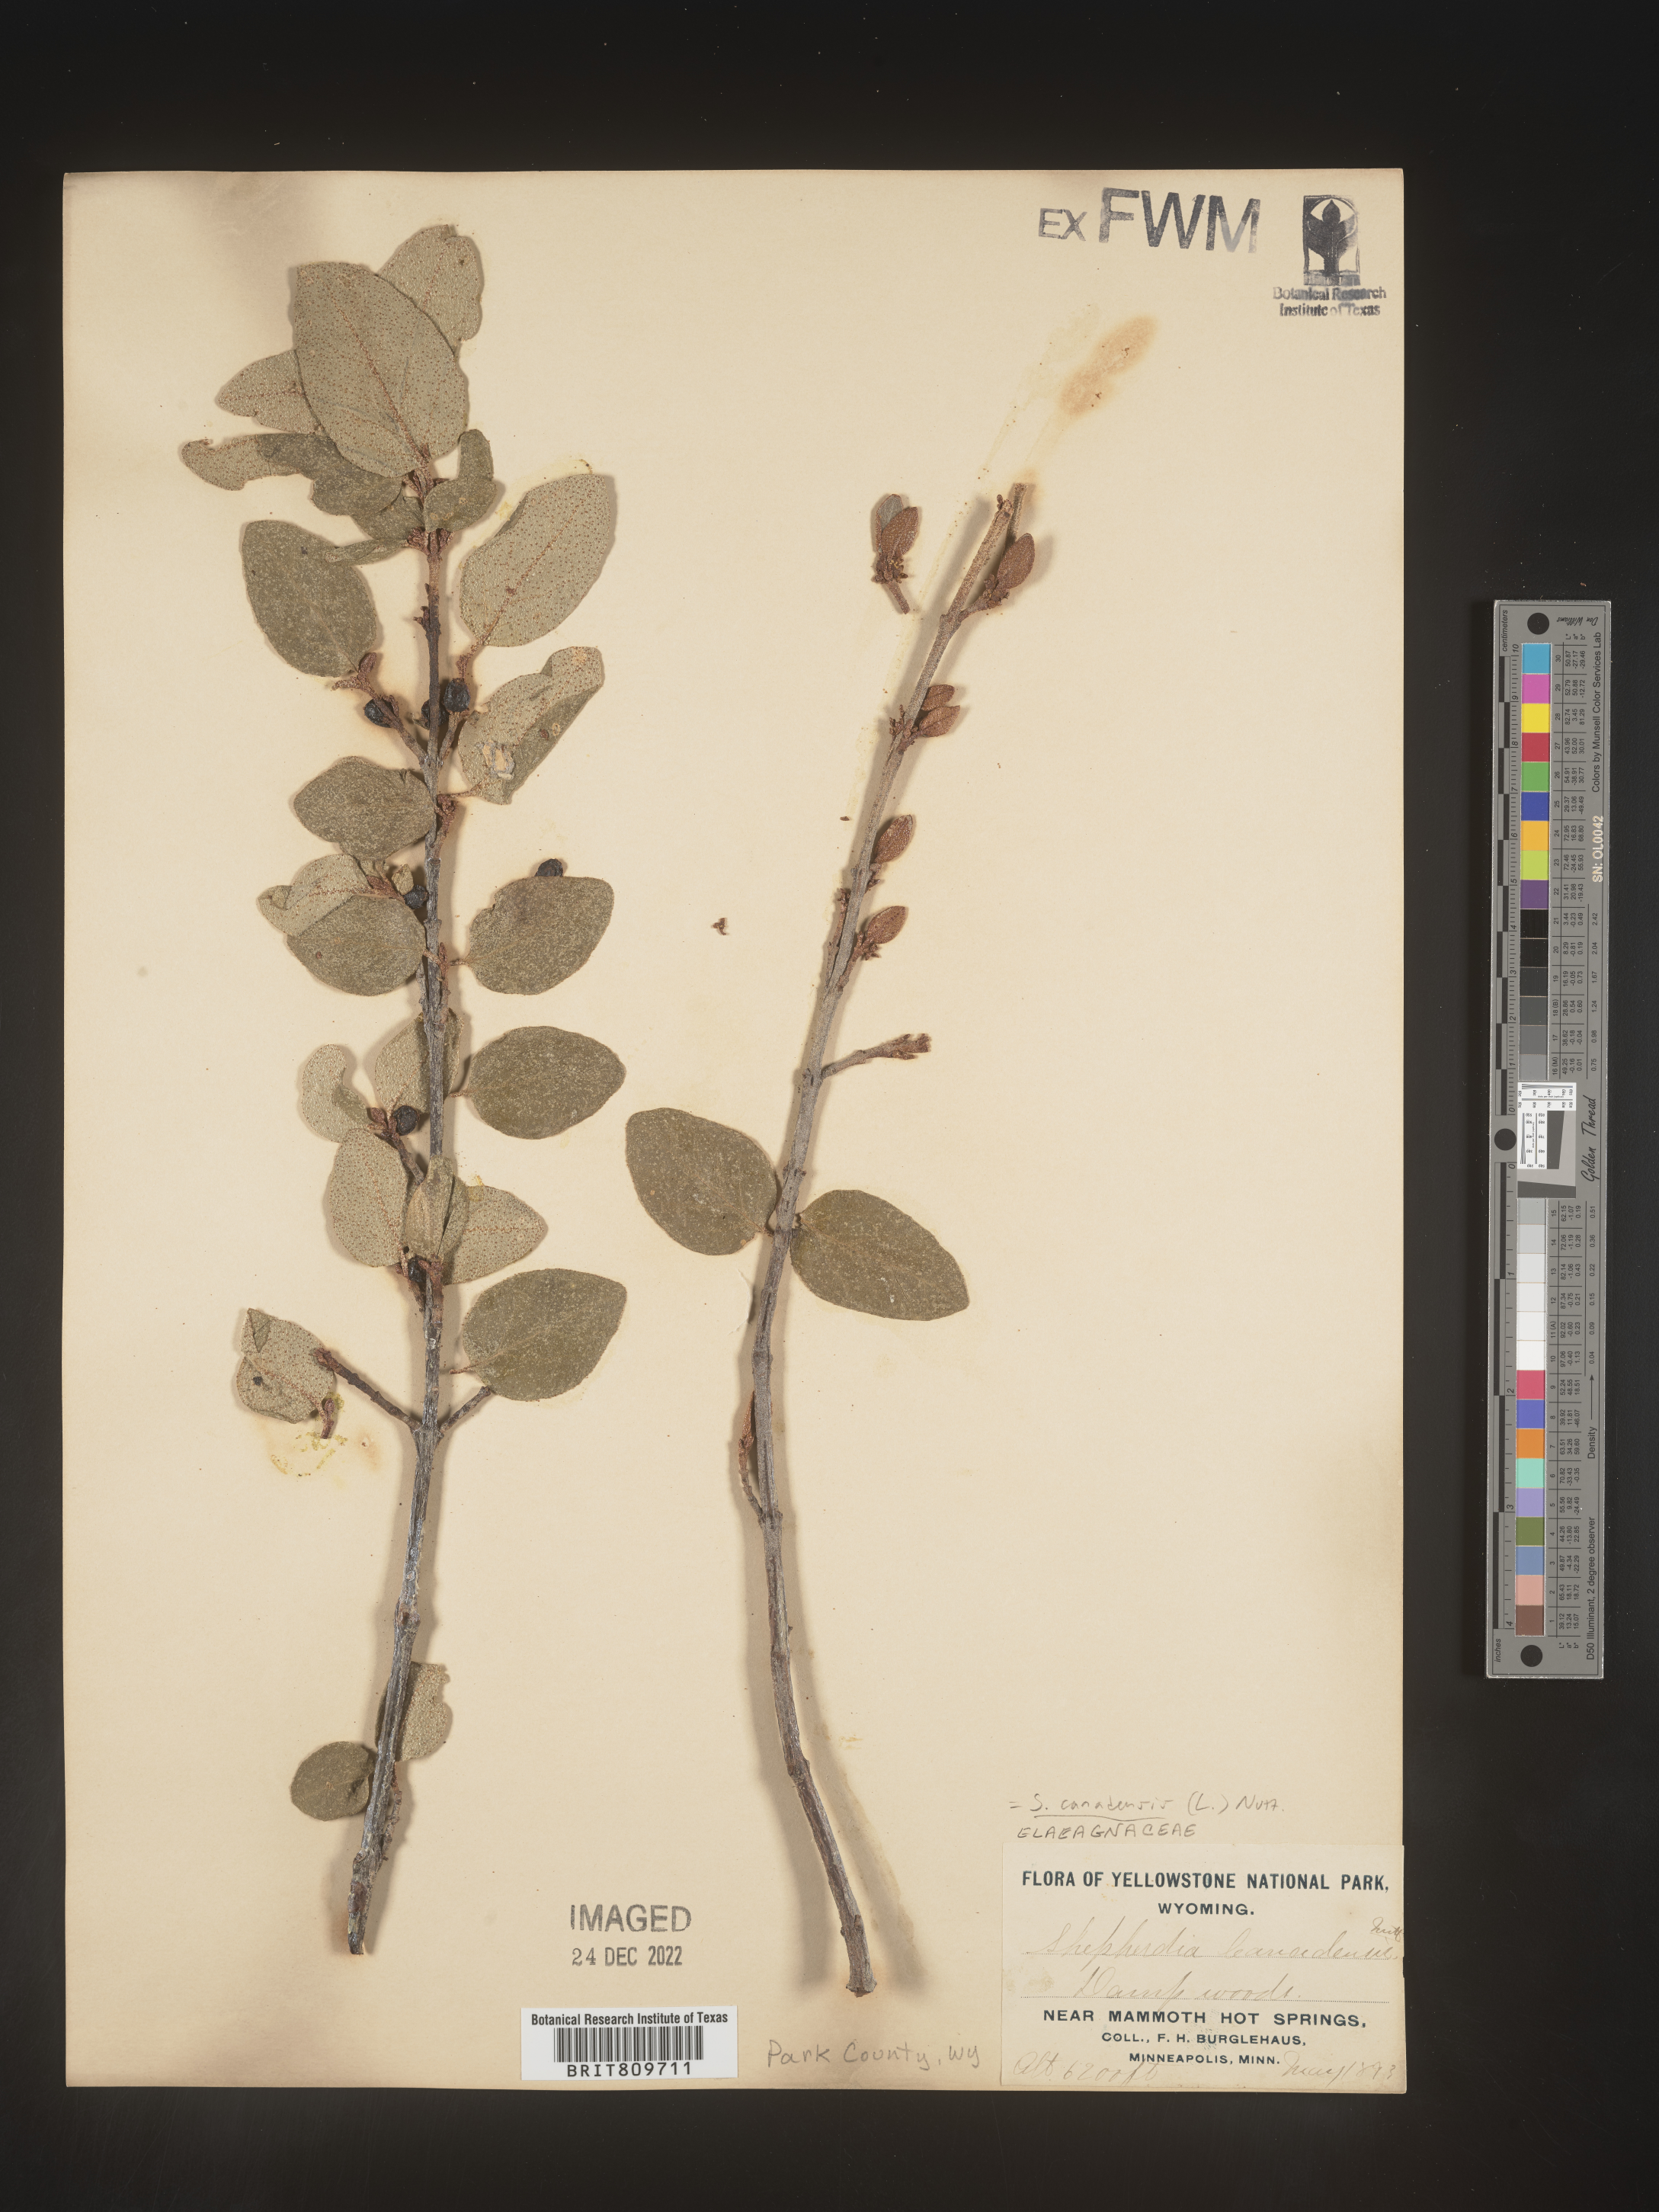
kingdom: Plantae
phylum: Tracheophyta
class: Magnoliopsida
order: Rosales
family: Elaeagnaceae
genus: Shepherdia
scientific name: Shepherdia canadensis
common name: Soapberry
